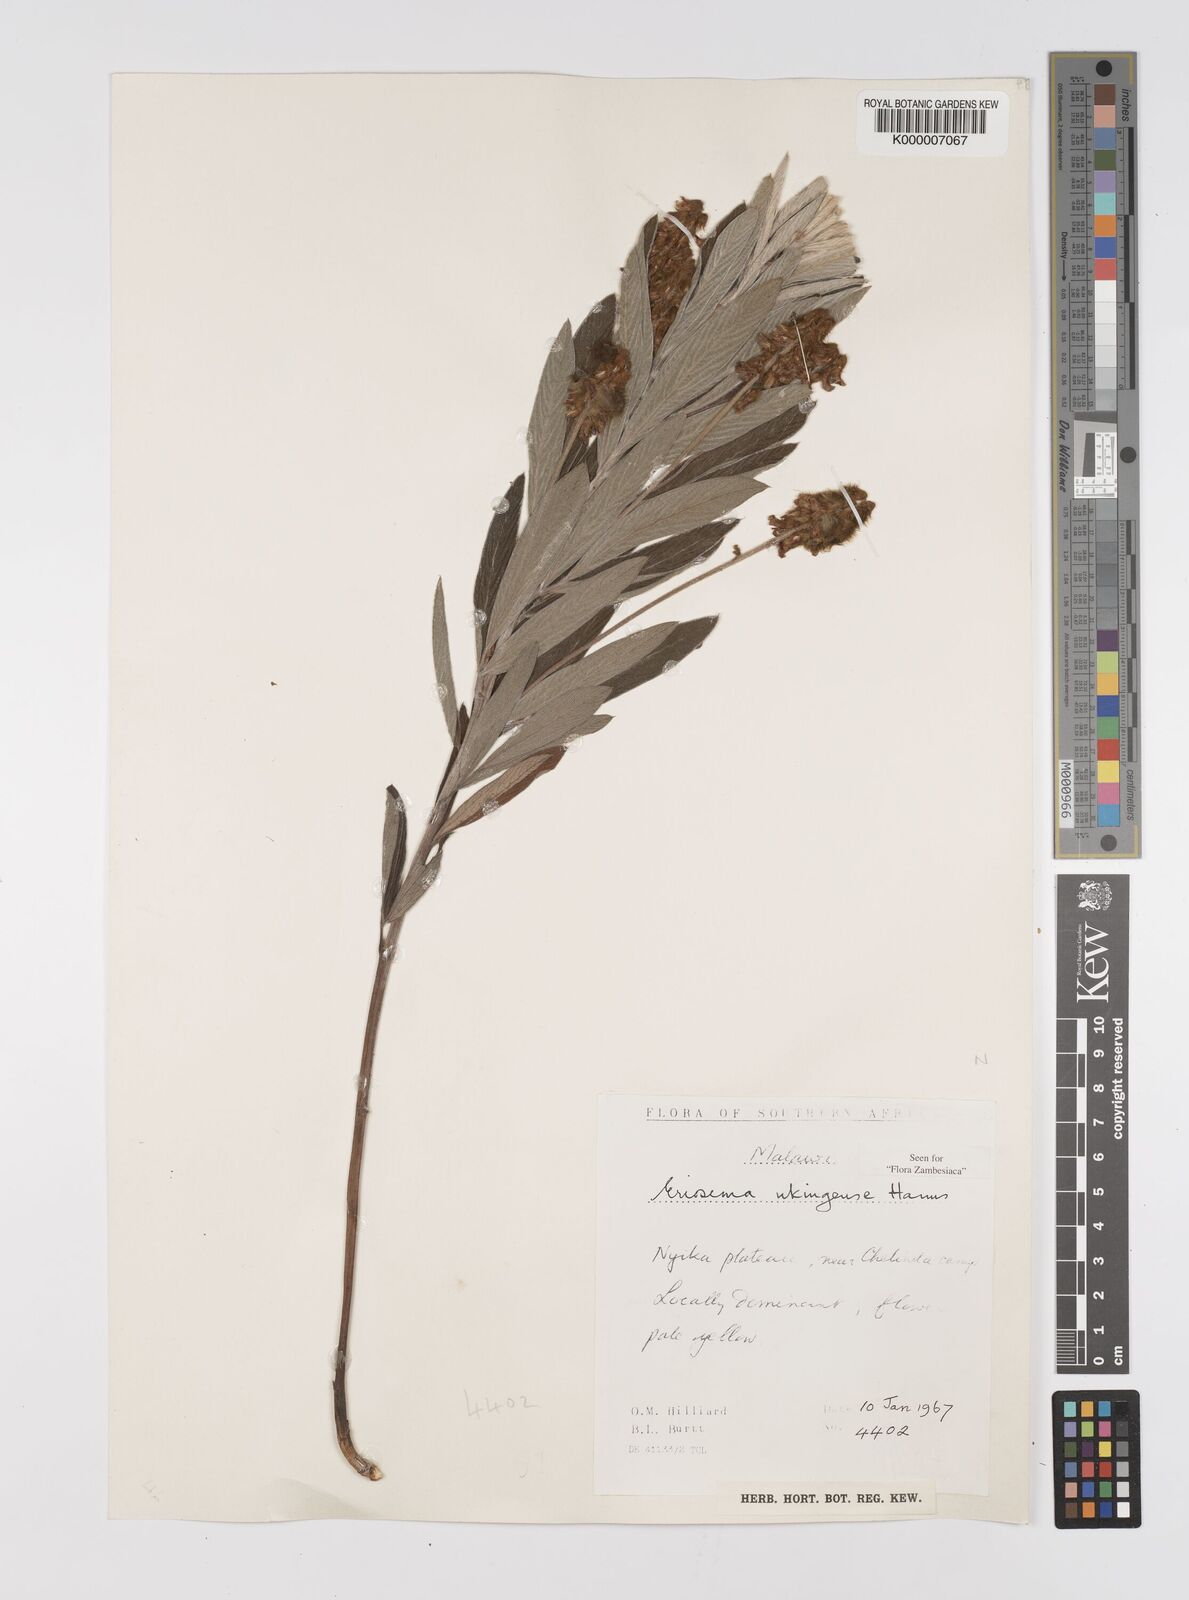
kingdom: Plantae
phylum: Tracheophyta
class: Magnoliopsida
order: Fabales
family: Fabaceae
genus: Eriosema
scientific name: Eriosema ukingense
